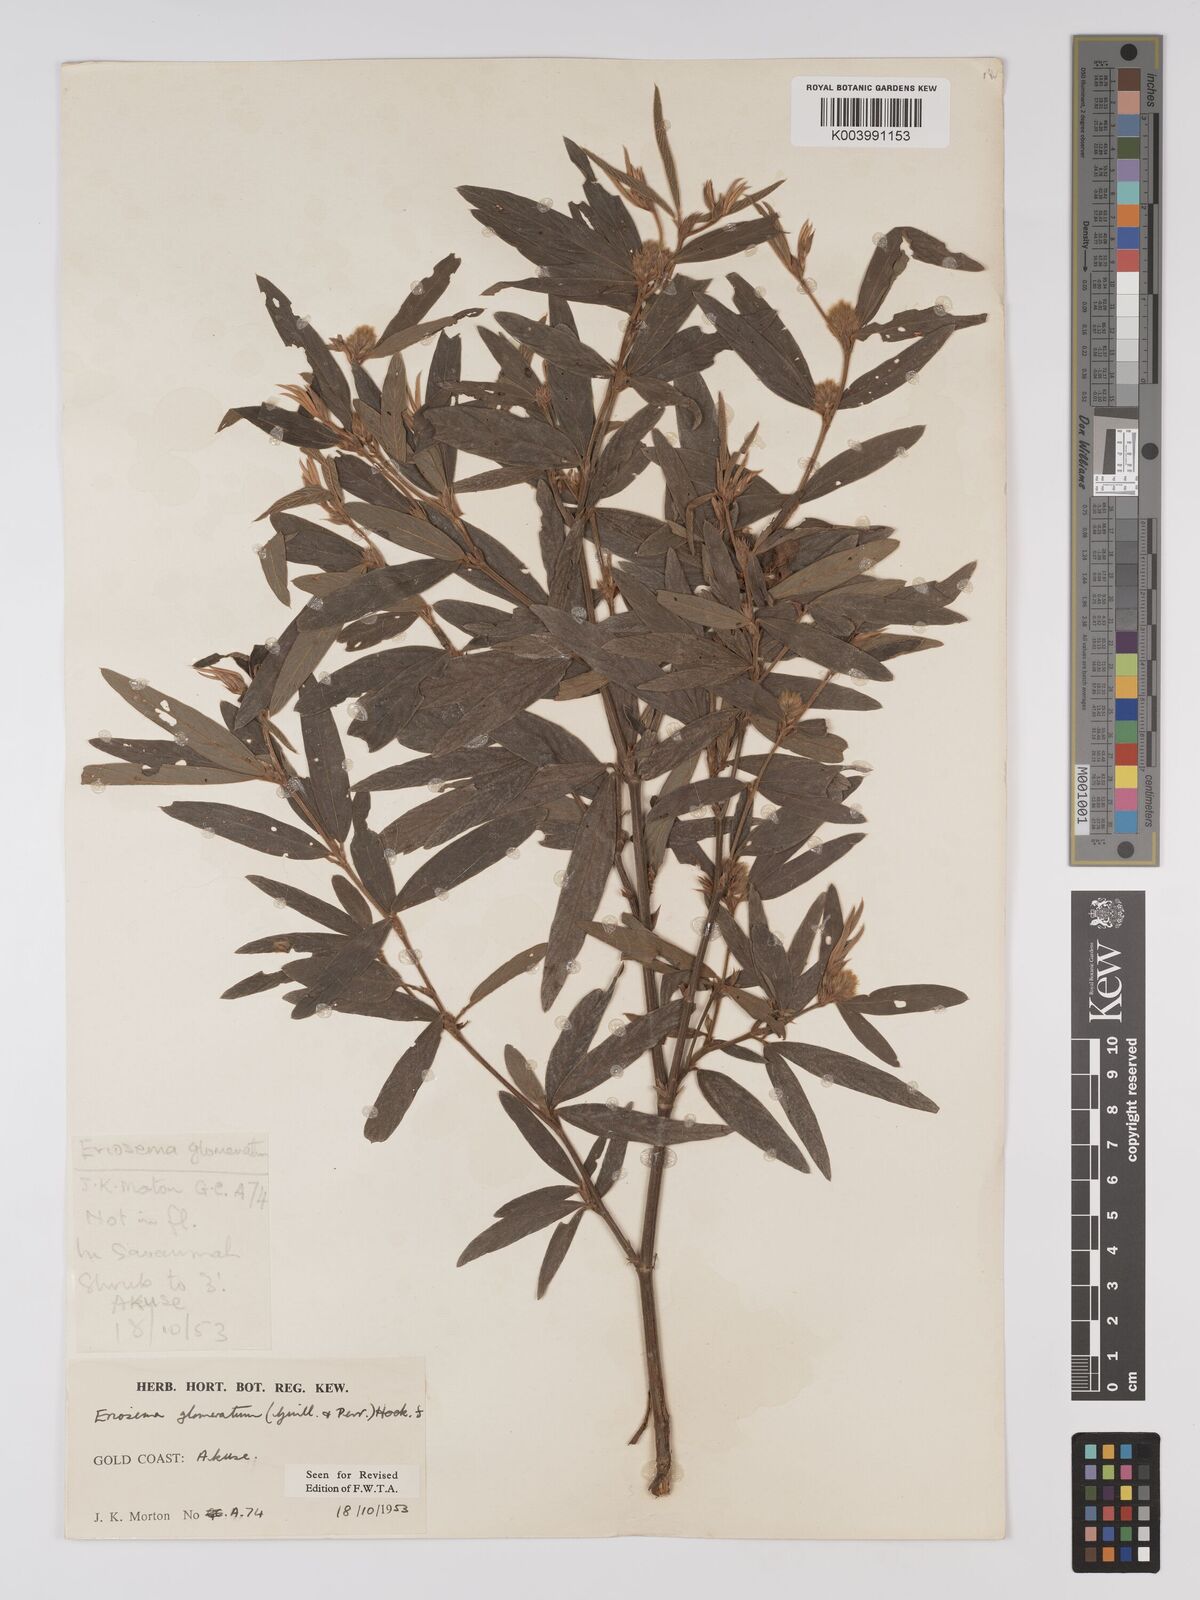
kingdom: Plantae
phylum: Tracheophyta
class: Magnoliopsida
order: Fabales
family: Fabaceae
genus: Eriosema
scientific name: Eriosema glomeratum
